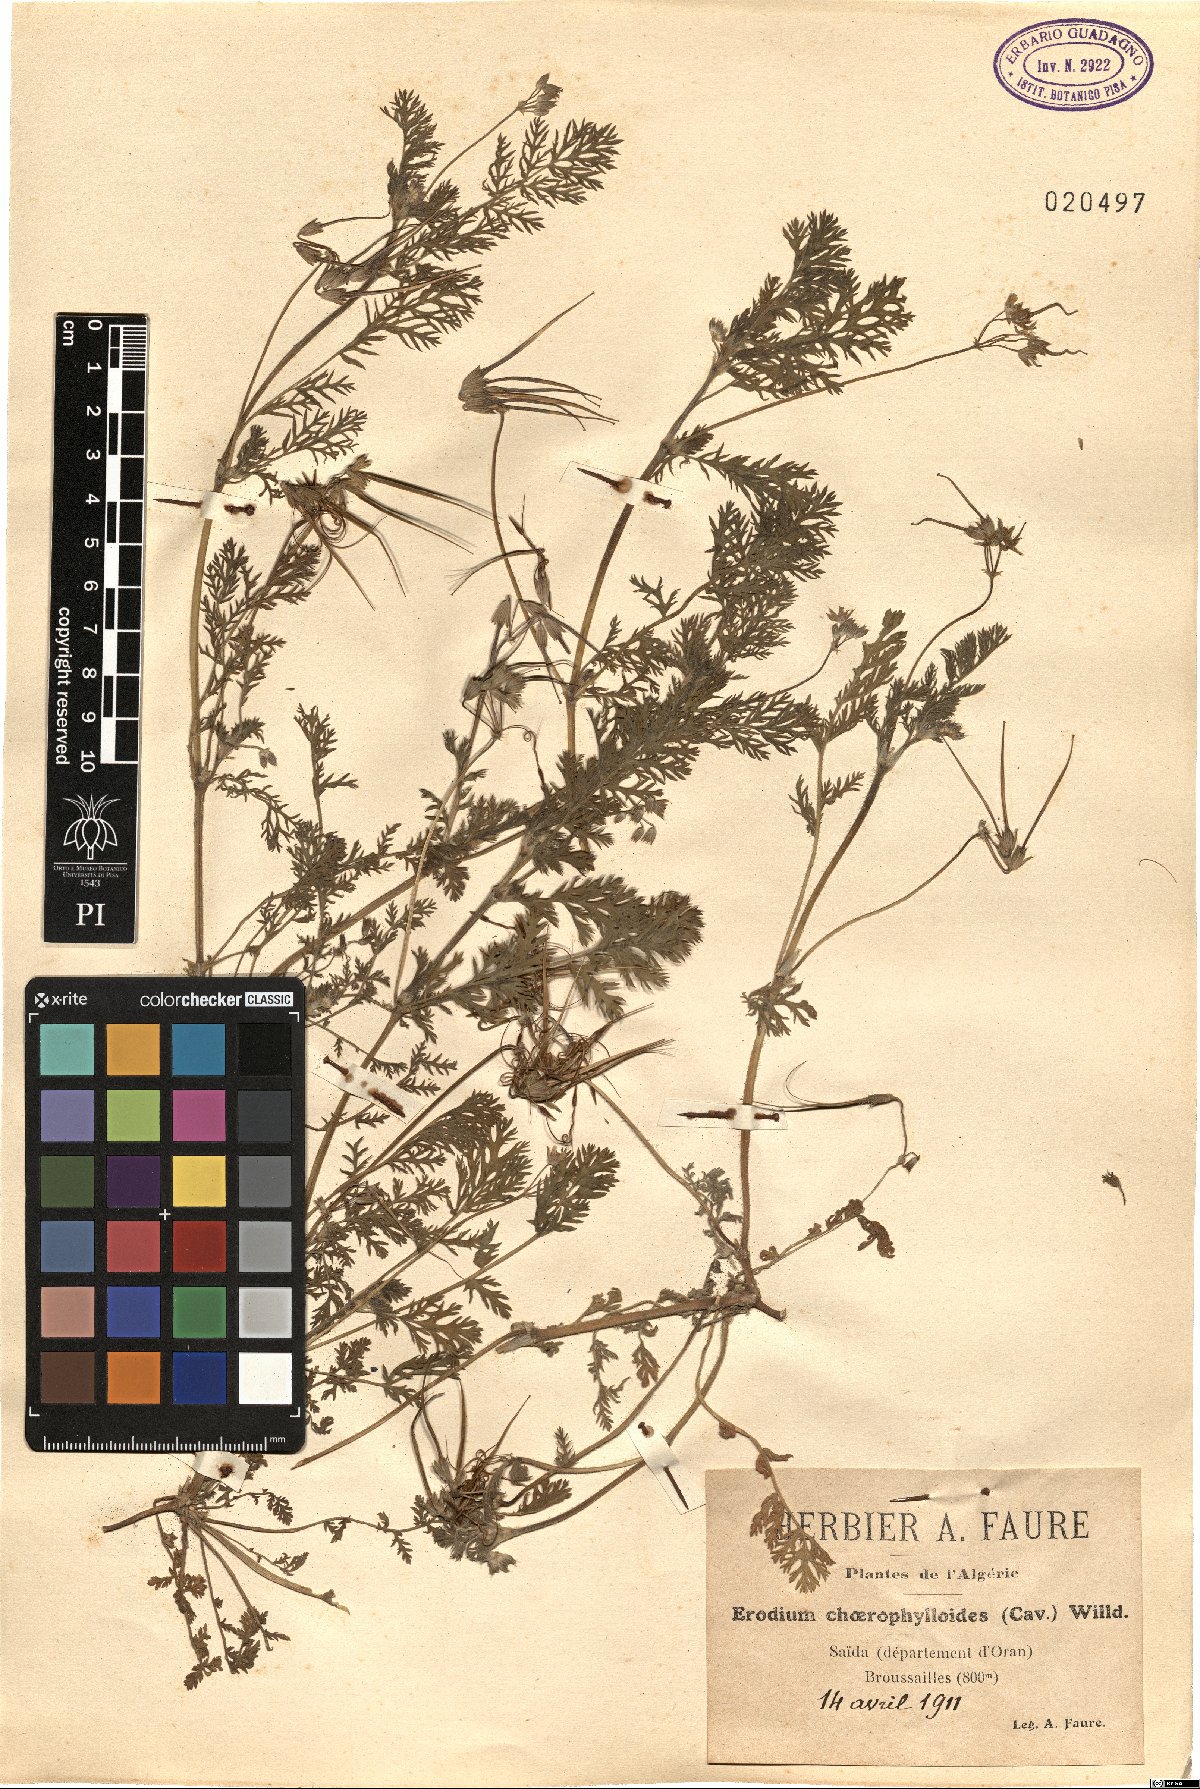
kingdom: Plantae
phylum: Tracheophyta
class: Magnoliopsida
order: Geraniales
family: Geraniaceae
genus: Erodium
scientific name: Erodium
